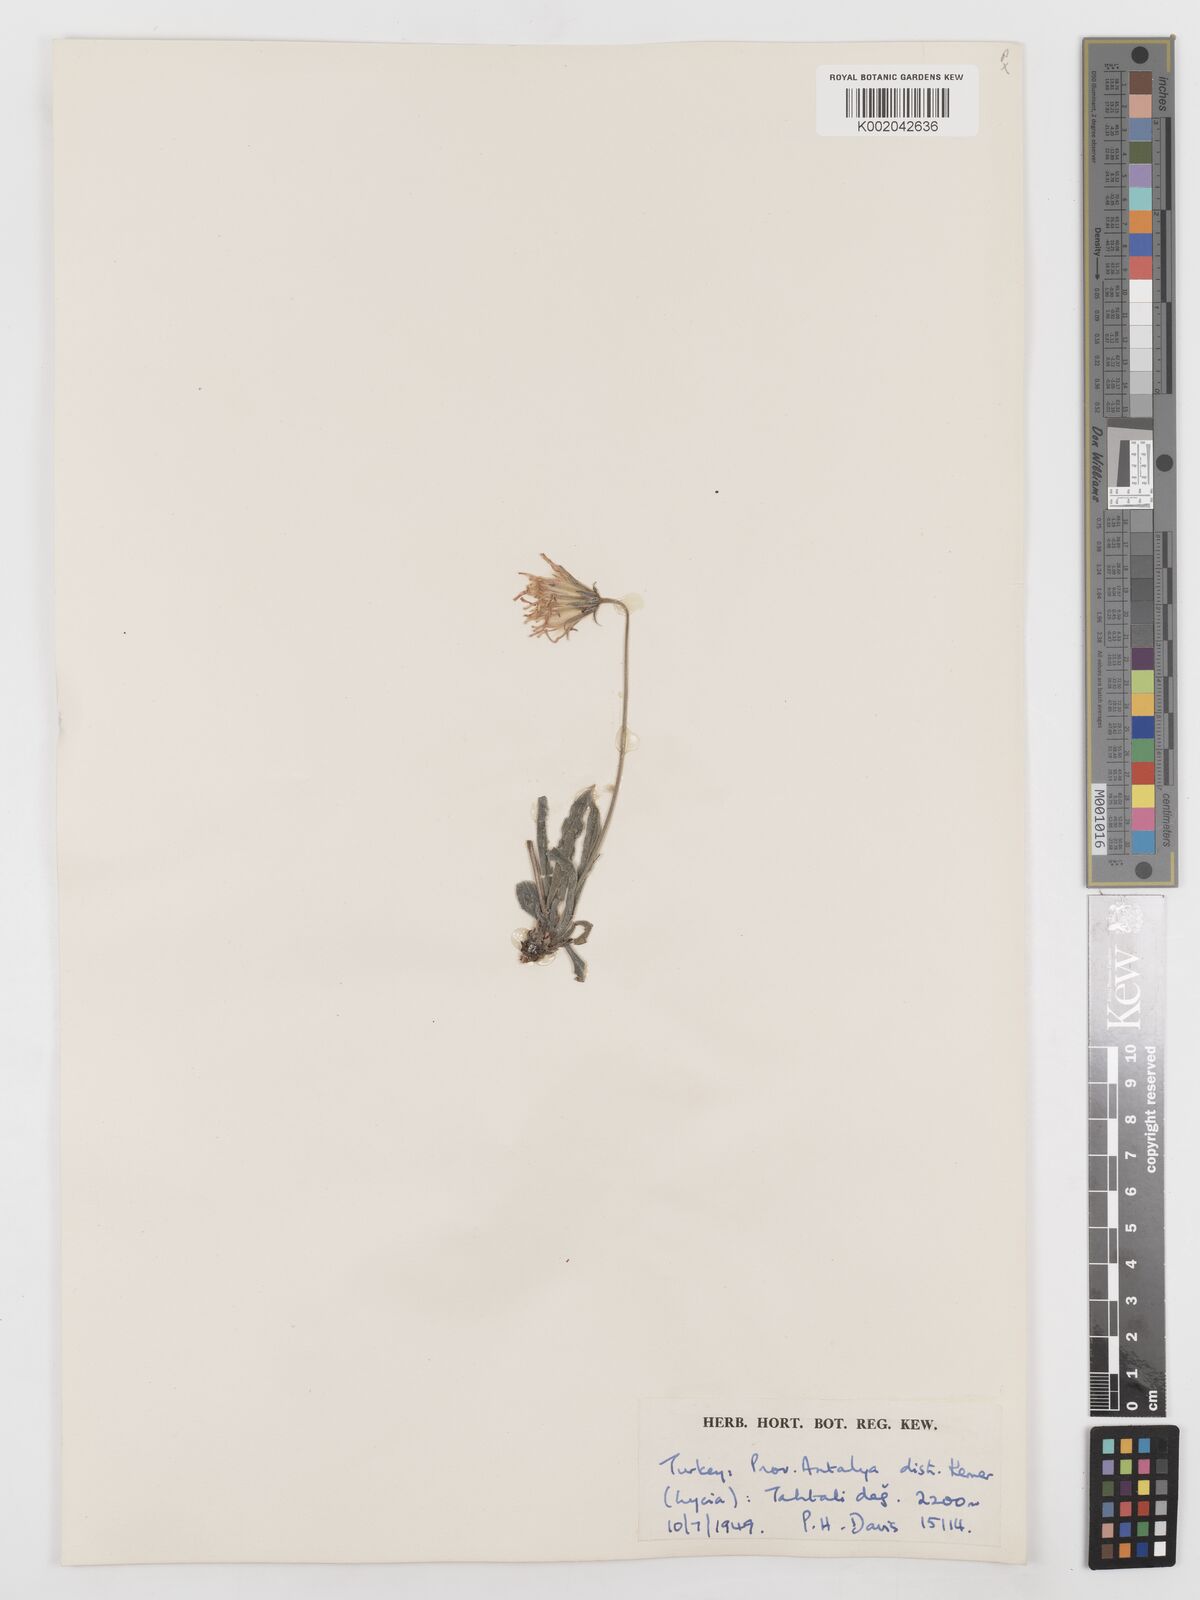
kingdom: Plantae
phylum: Tracheophyta
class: Magnoliopsida
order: Asterales
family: Asteraceae
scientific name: Asteraceae
